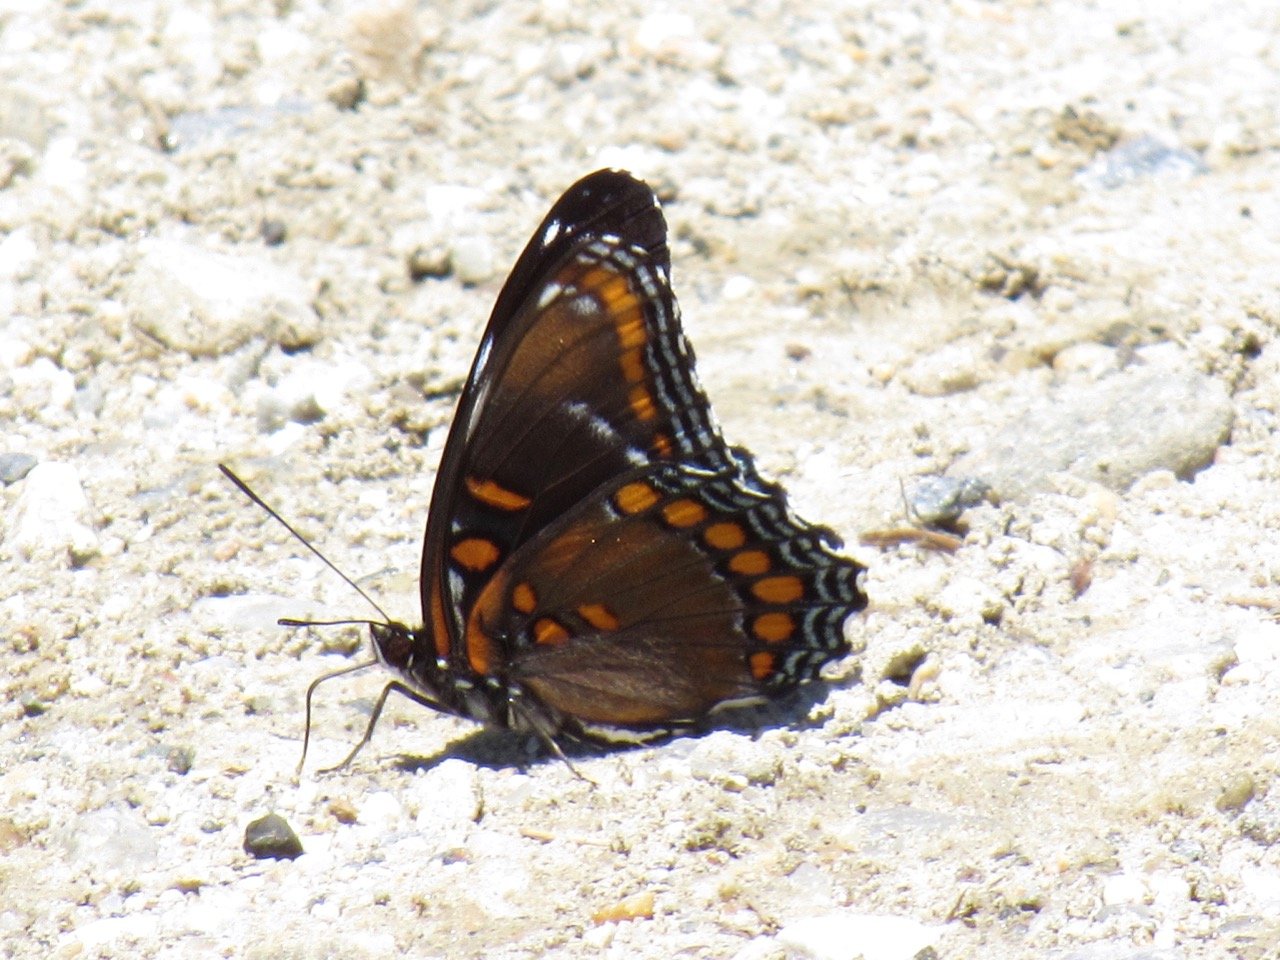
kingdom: Animalia
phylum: Arthropoda
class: Insecta
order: Lepidoptera
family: Nymphalidae
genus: Limenitis
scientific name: Limenitis
